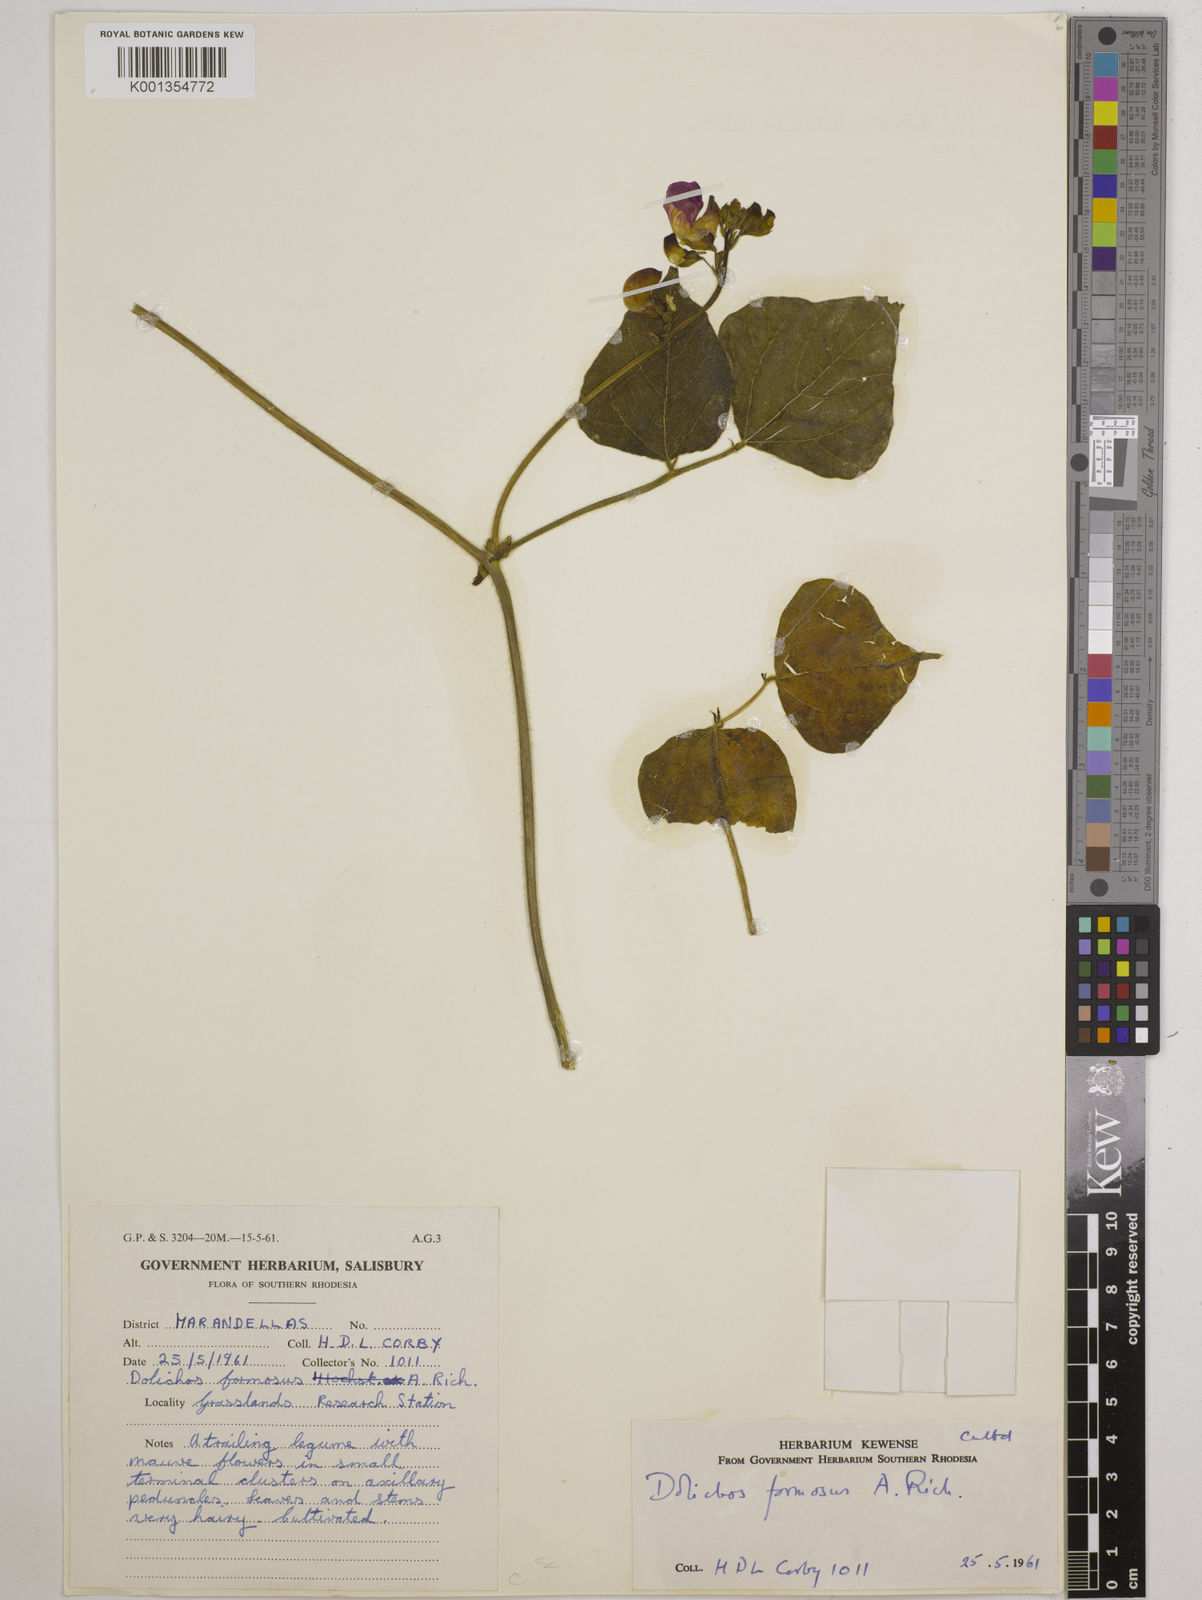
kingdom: Plantae
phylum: Tracheophyta
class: Magnoliopsida
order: Fabales
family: Fabaceae
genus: Dolichos
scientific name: Dolichos
